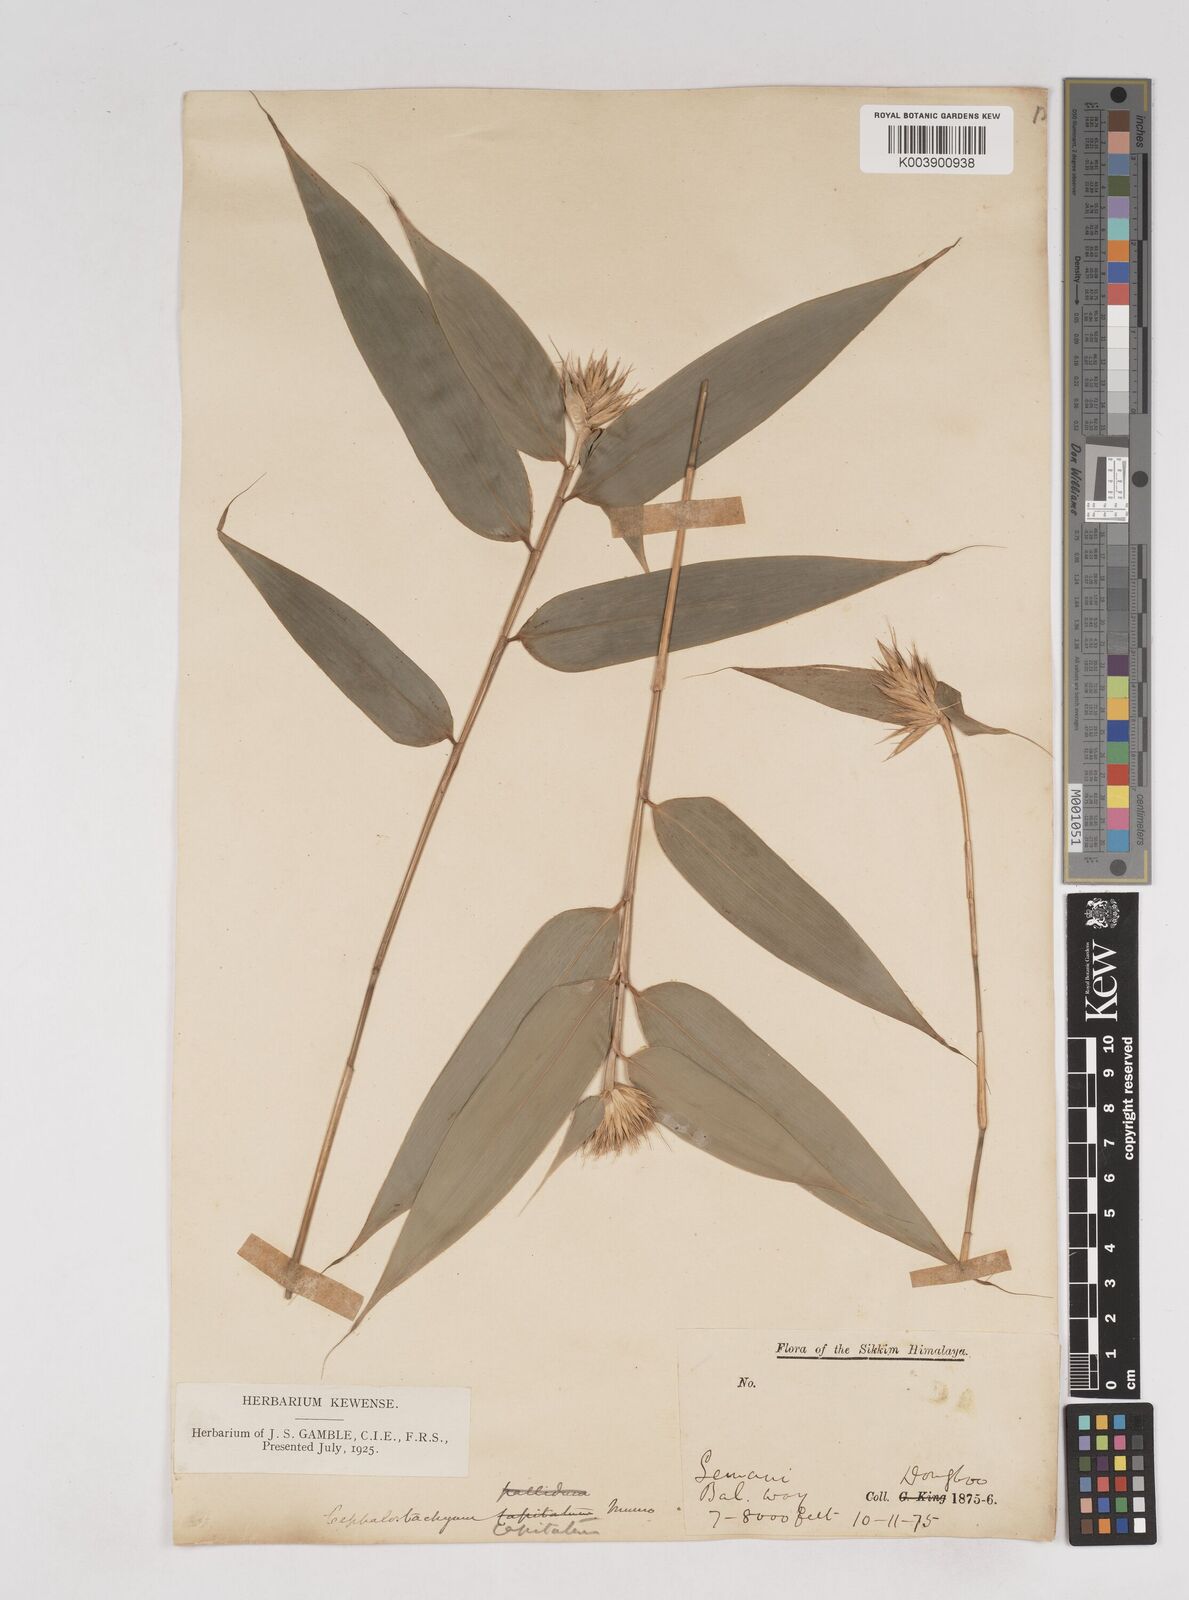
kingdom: Plantae
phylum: Tracheophyta
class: Liliopsida
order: Poales
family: Poaceae
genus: Cephalostachyum
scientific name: Cephalostachyum
